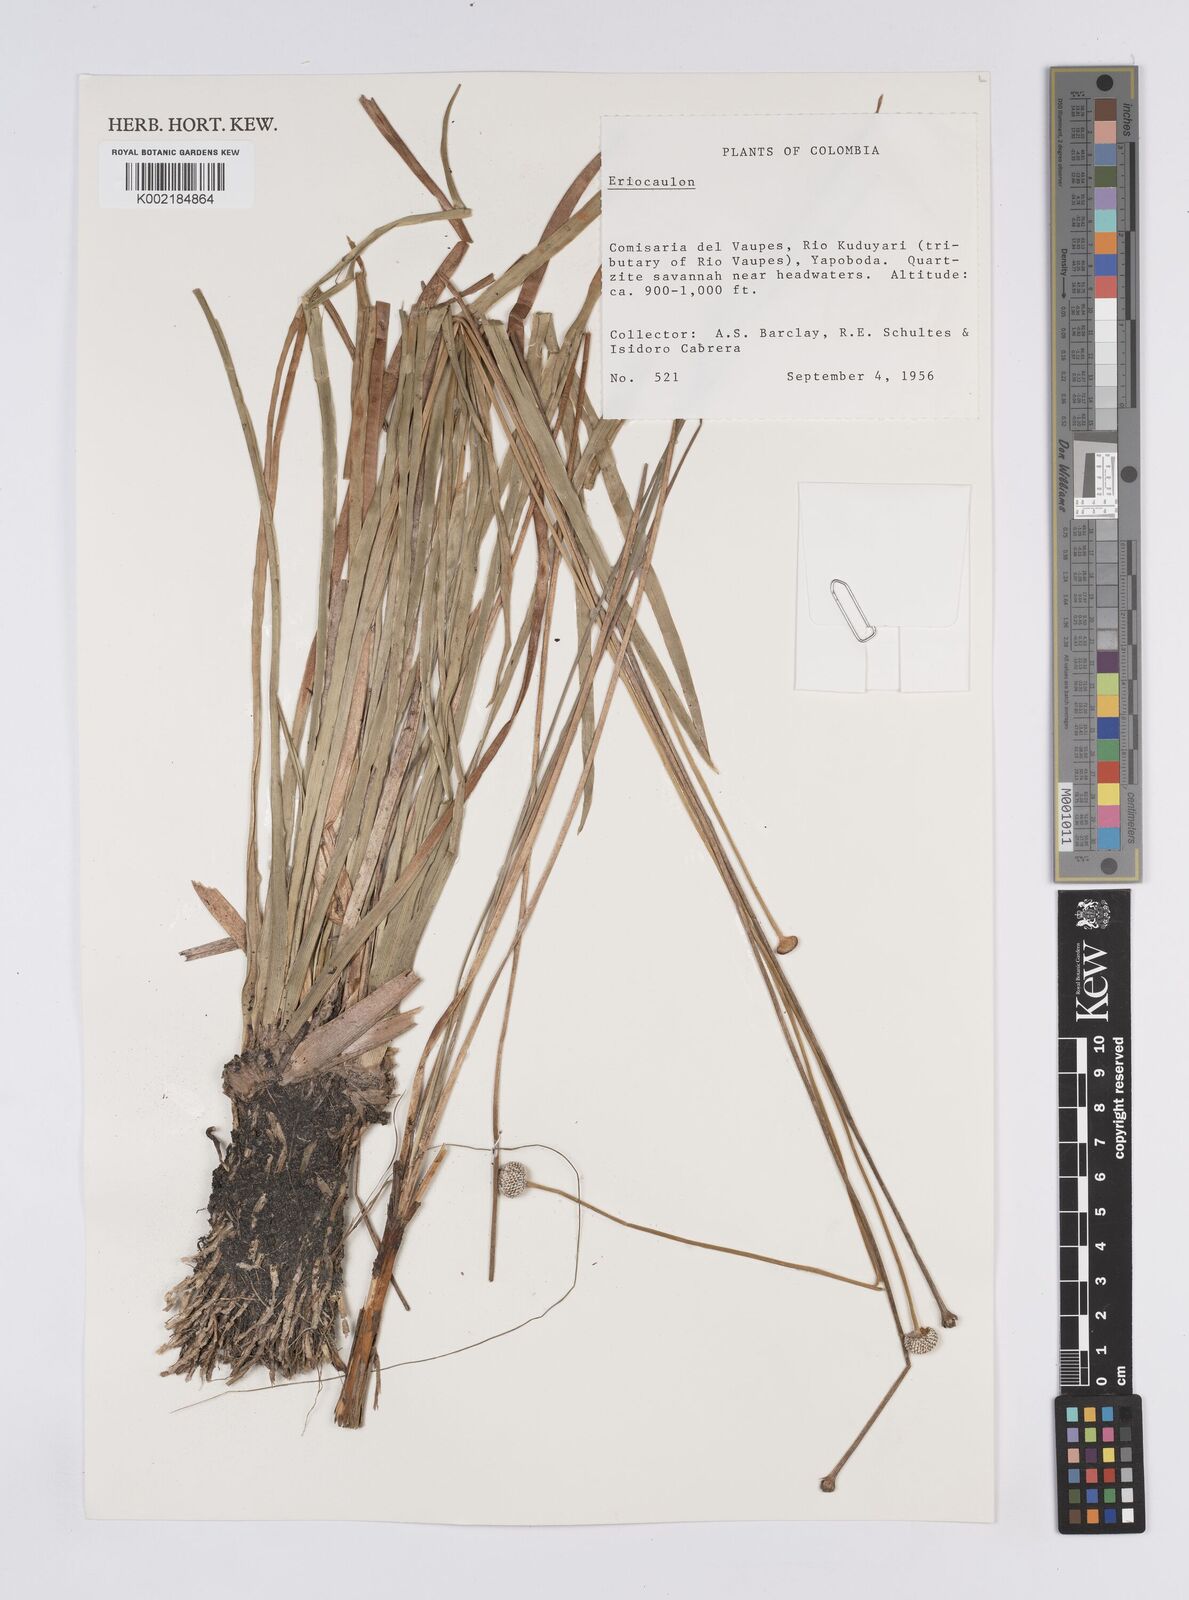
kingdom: Plantae
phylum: Tracheophyta
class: Liliopsida
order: Poales
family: Eriocaulaceae
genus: Eriocaulon
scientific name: Eriocaulon
